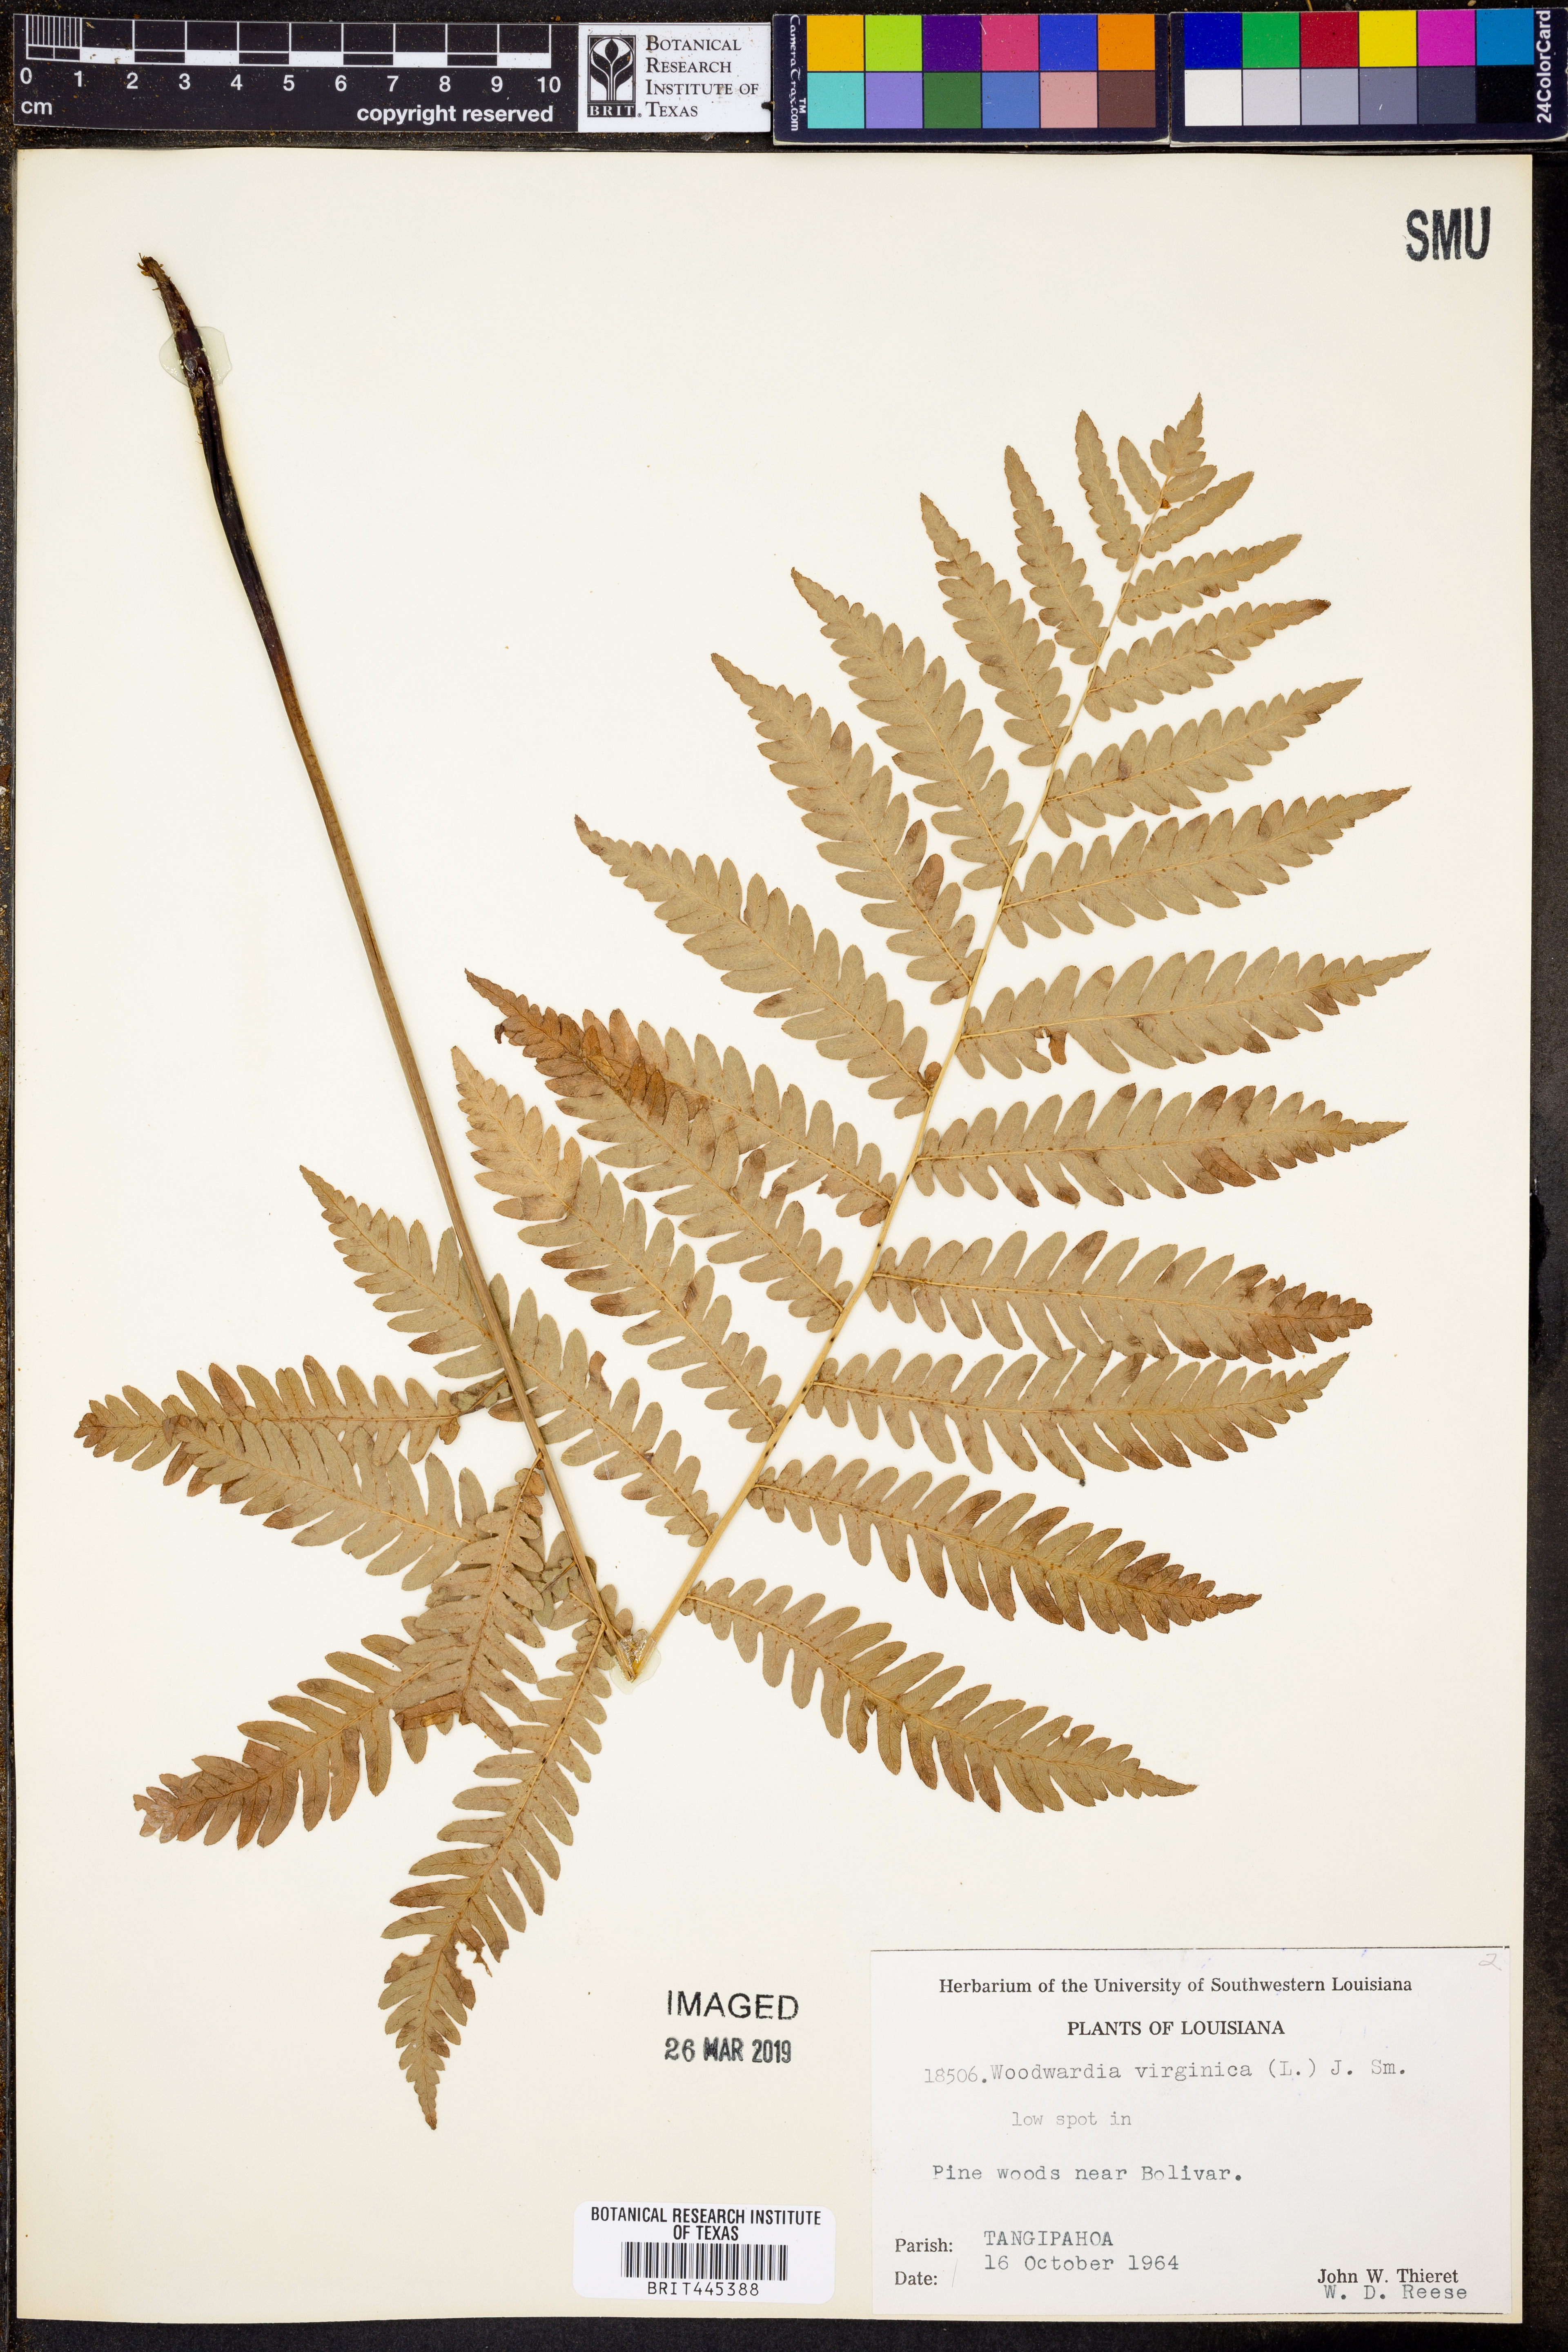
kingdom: Plantae
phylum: Tracheophyta
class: Polypodiopsida
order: Polypodiales
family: Blechnaceae
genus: Anchistea
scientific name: Anchistea virginica
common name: Virginia chain fern
